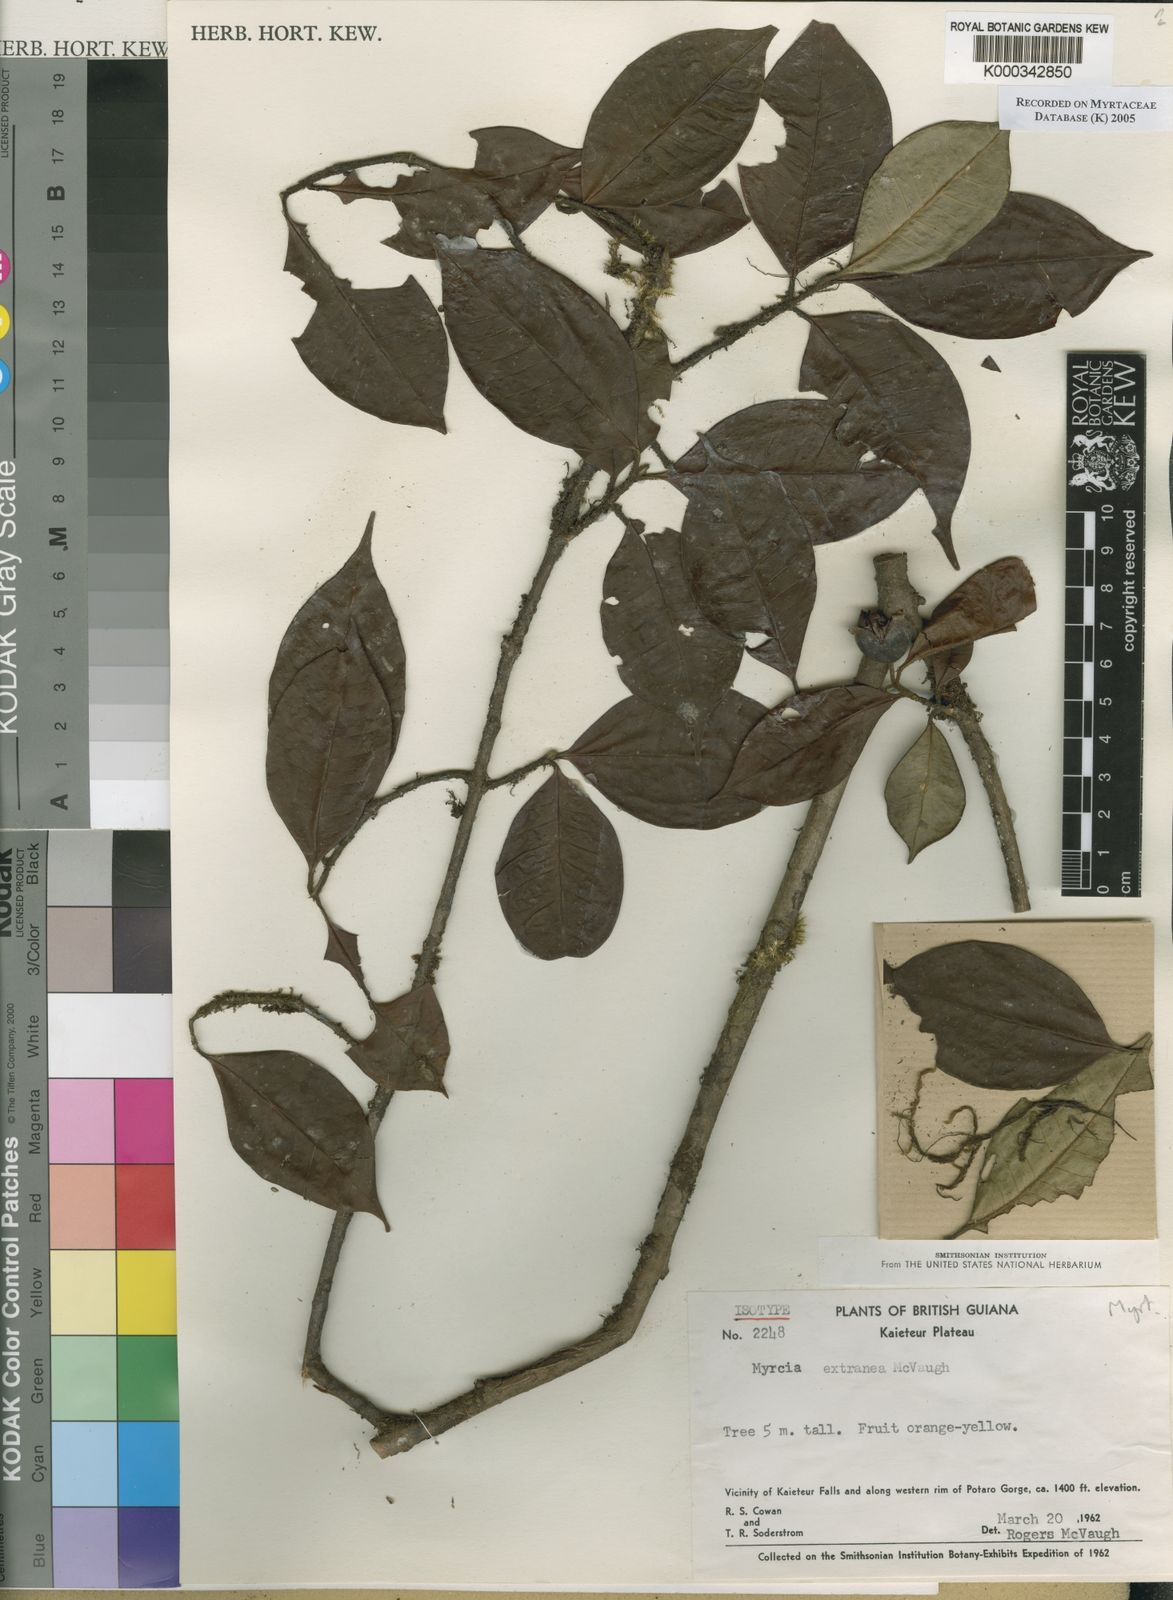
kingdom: Plantae
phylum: Tracheophyta
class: Magnoliopsida
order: Myrtales
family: Myrtaceae
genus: Myrcia
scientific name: Myrcia extranea
